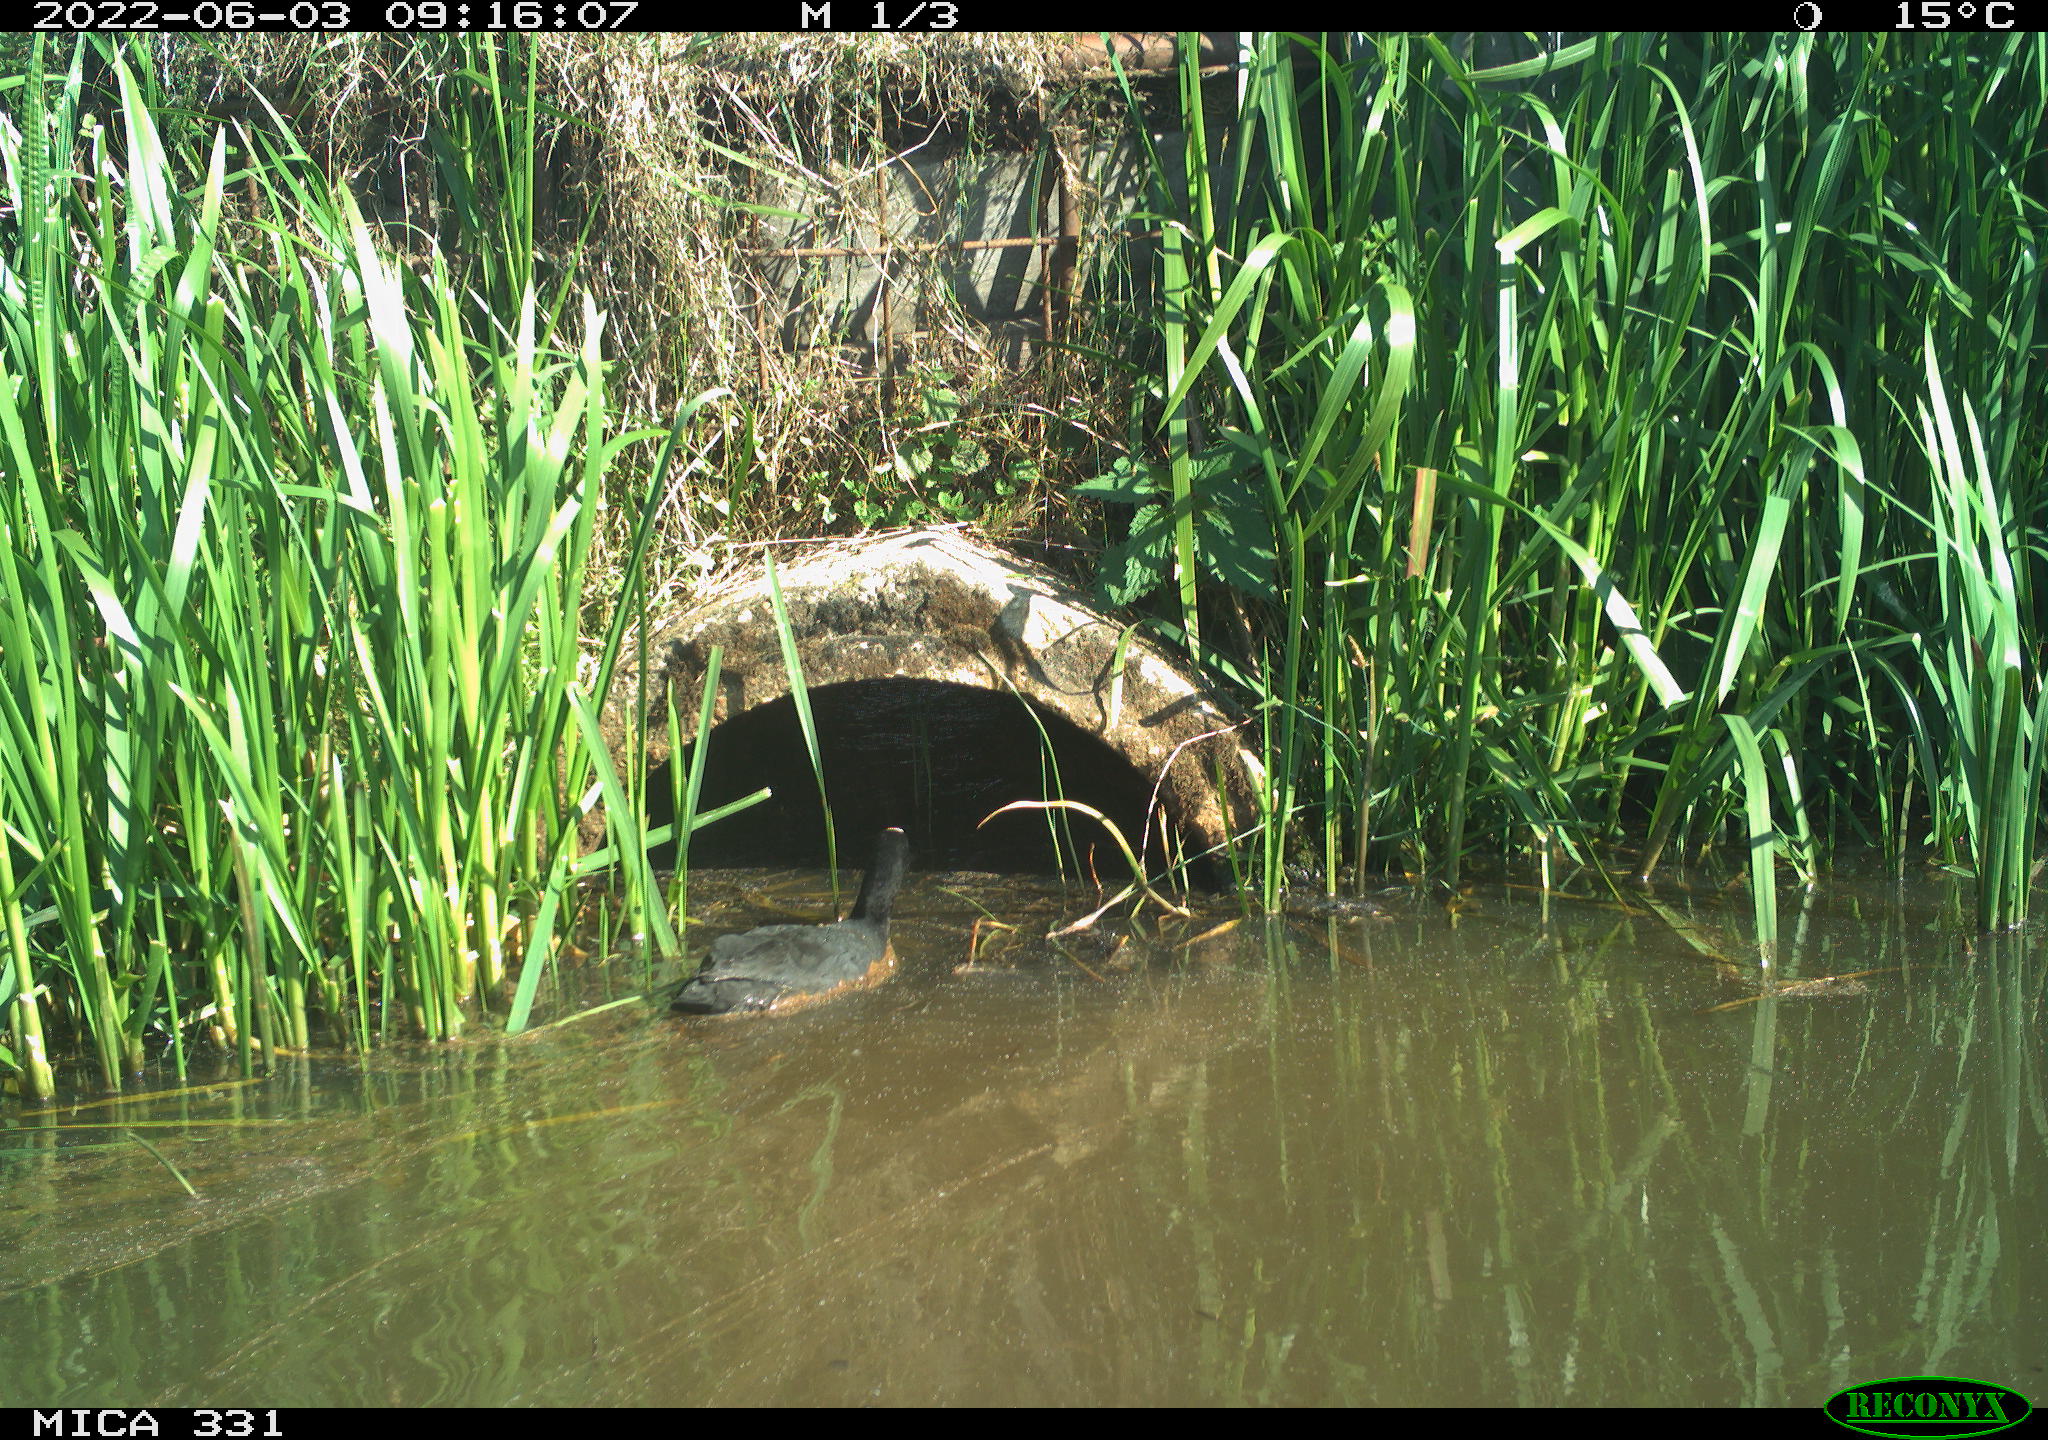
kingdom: Animalia
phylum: Chordata
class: Aves
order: Gruiformes
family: Rallidae
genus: Fulica
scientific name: Fulica atra
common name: Eurasian coot
